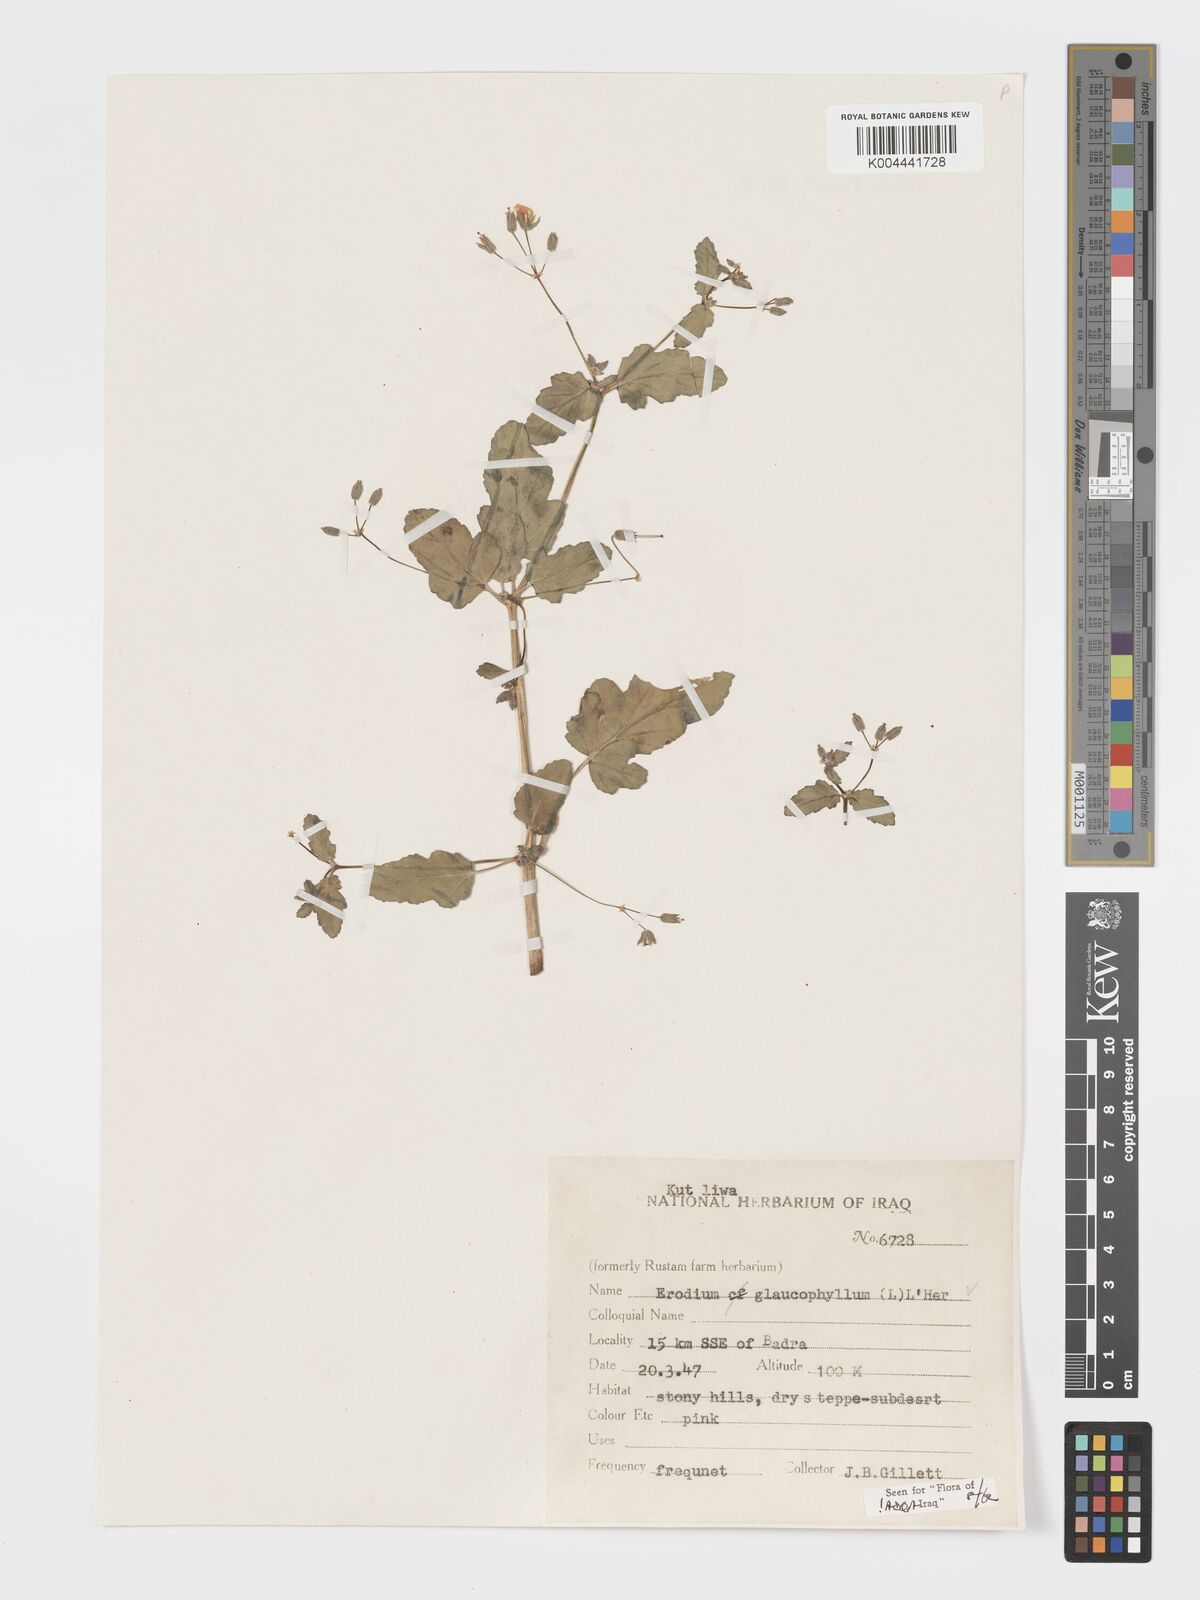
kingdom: Plantae
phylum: Tracheophyta
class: Magnoliopsida
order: Geraniales
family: Geraniaceae
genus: Erodium
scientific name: Erodium glaucophyllum
